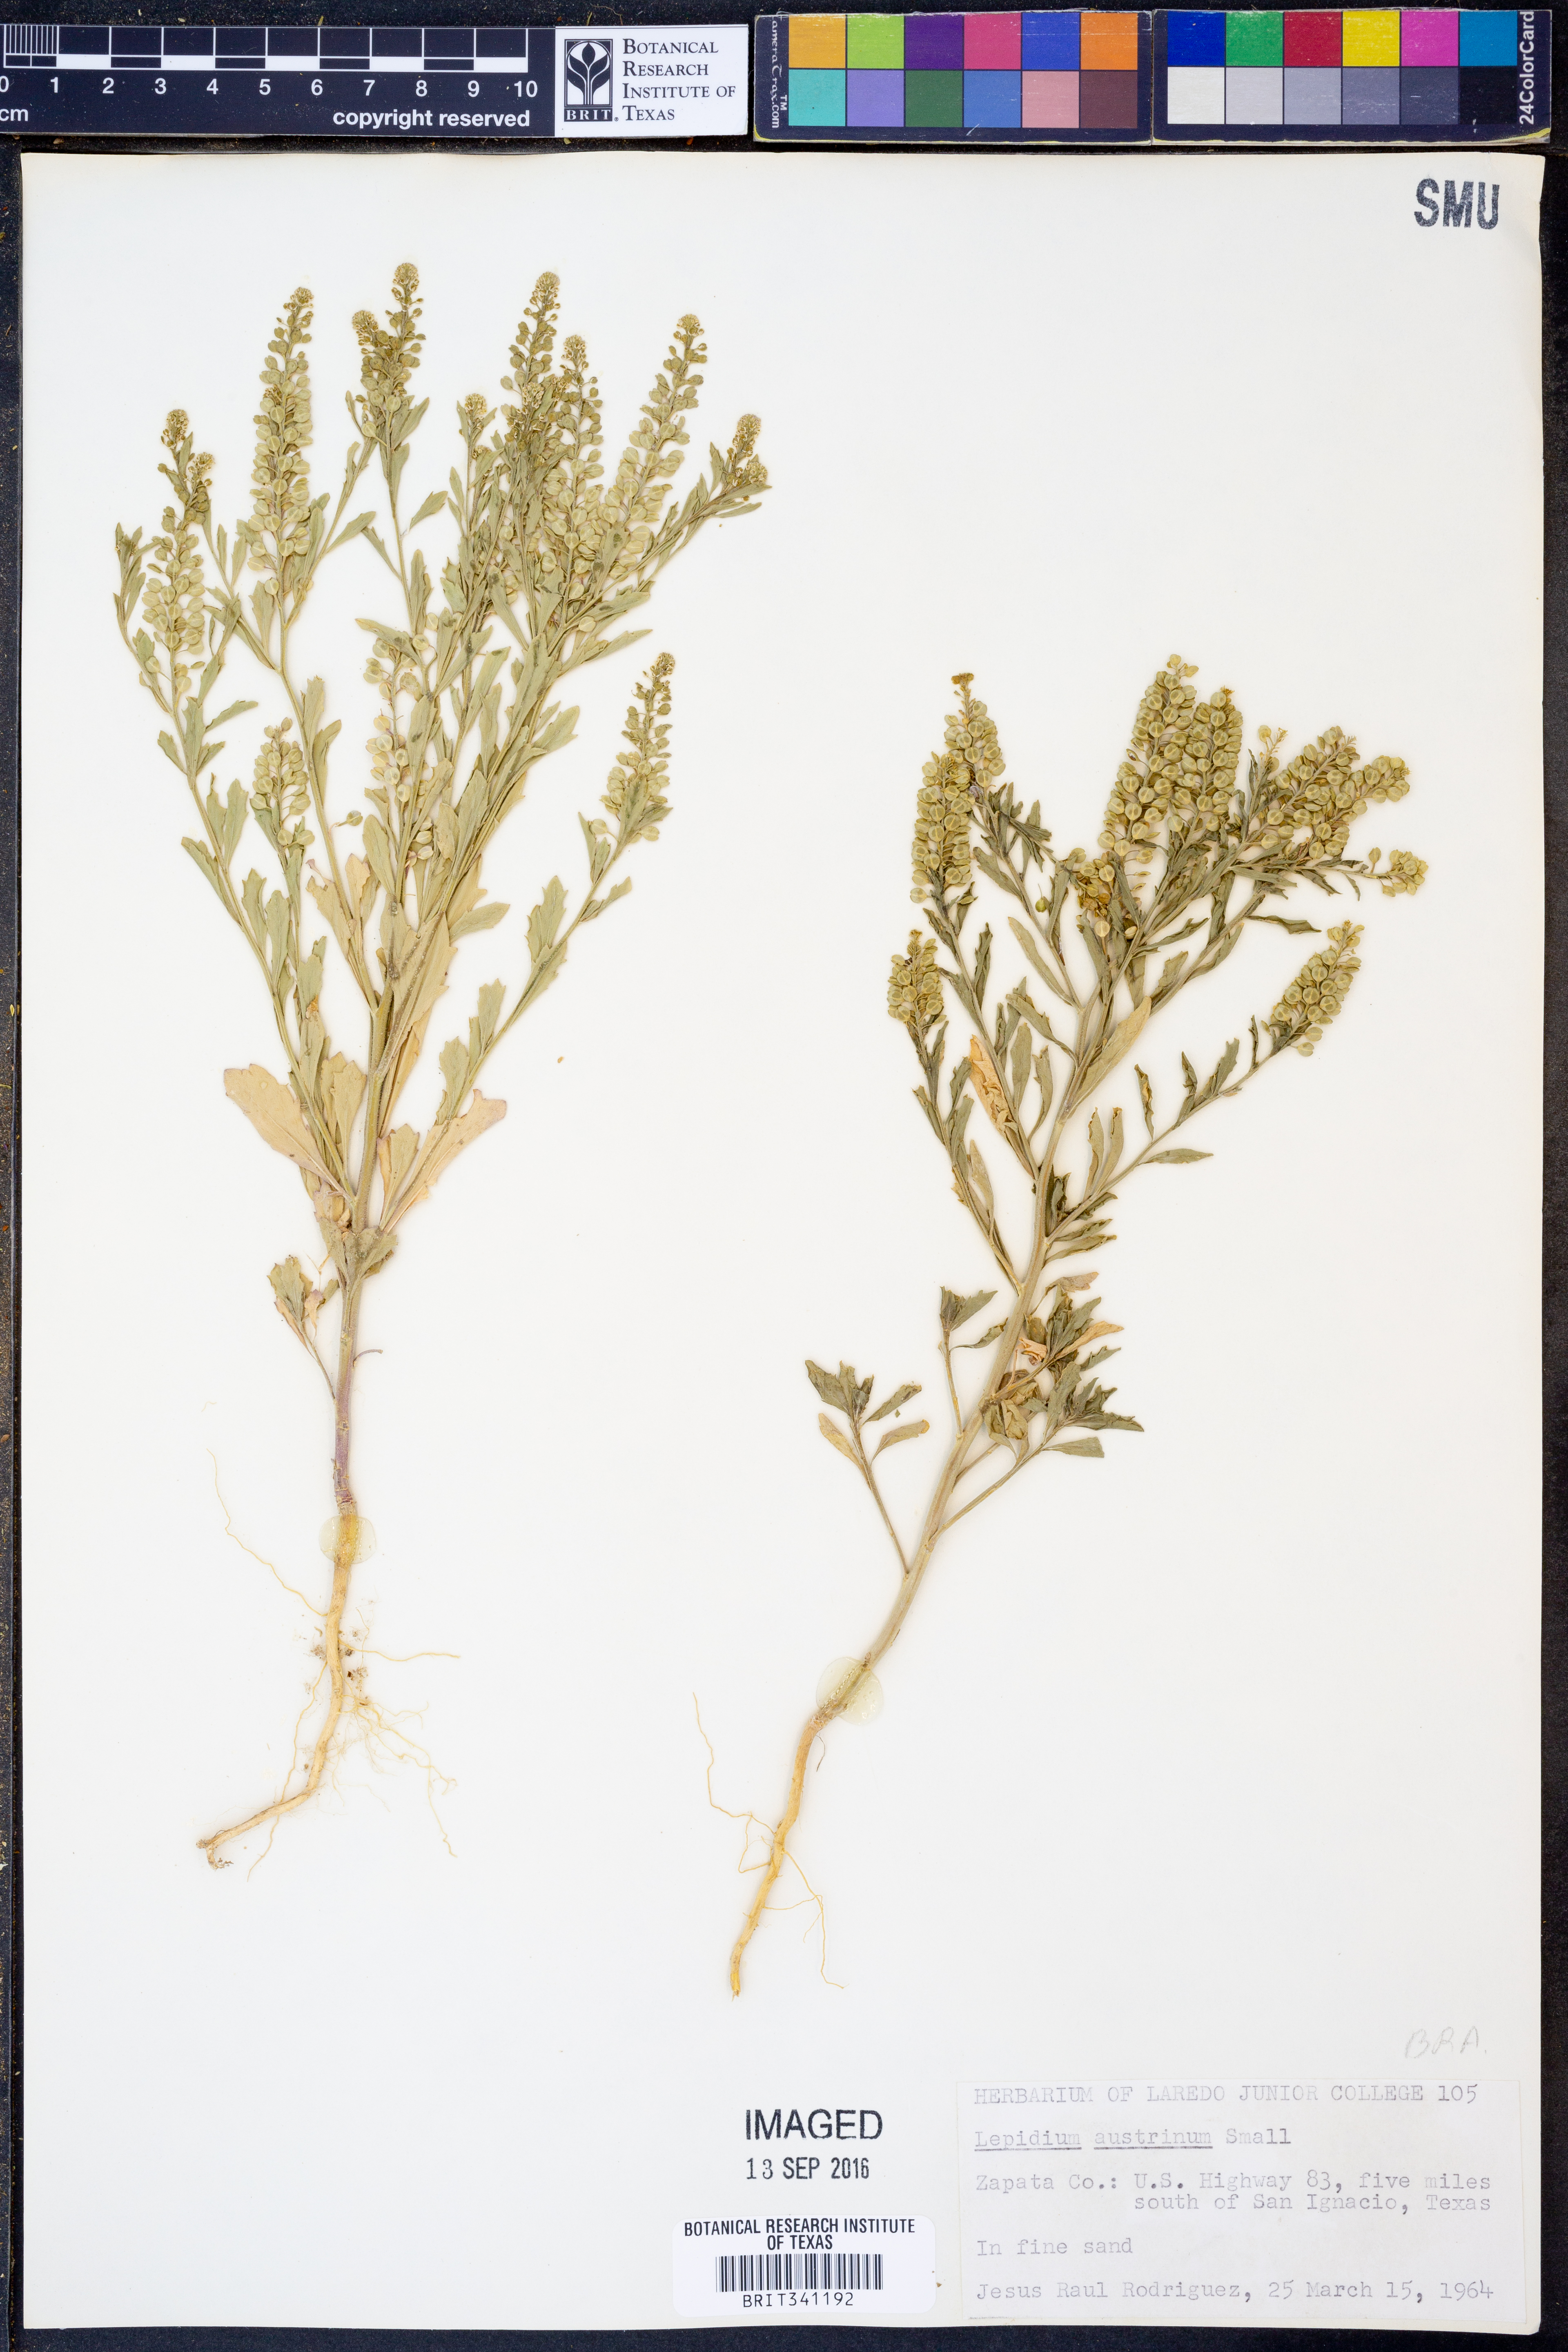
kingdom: Plantae
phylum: Tracheophyta
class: Magnoliopsida
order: Brassicales
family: Brassicaceae
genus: Lepidium
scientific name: Lepidium austrinum
